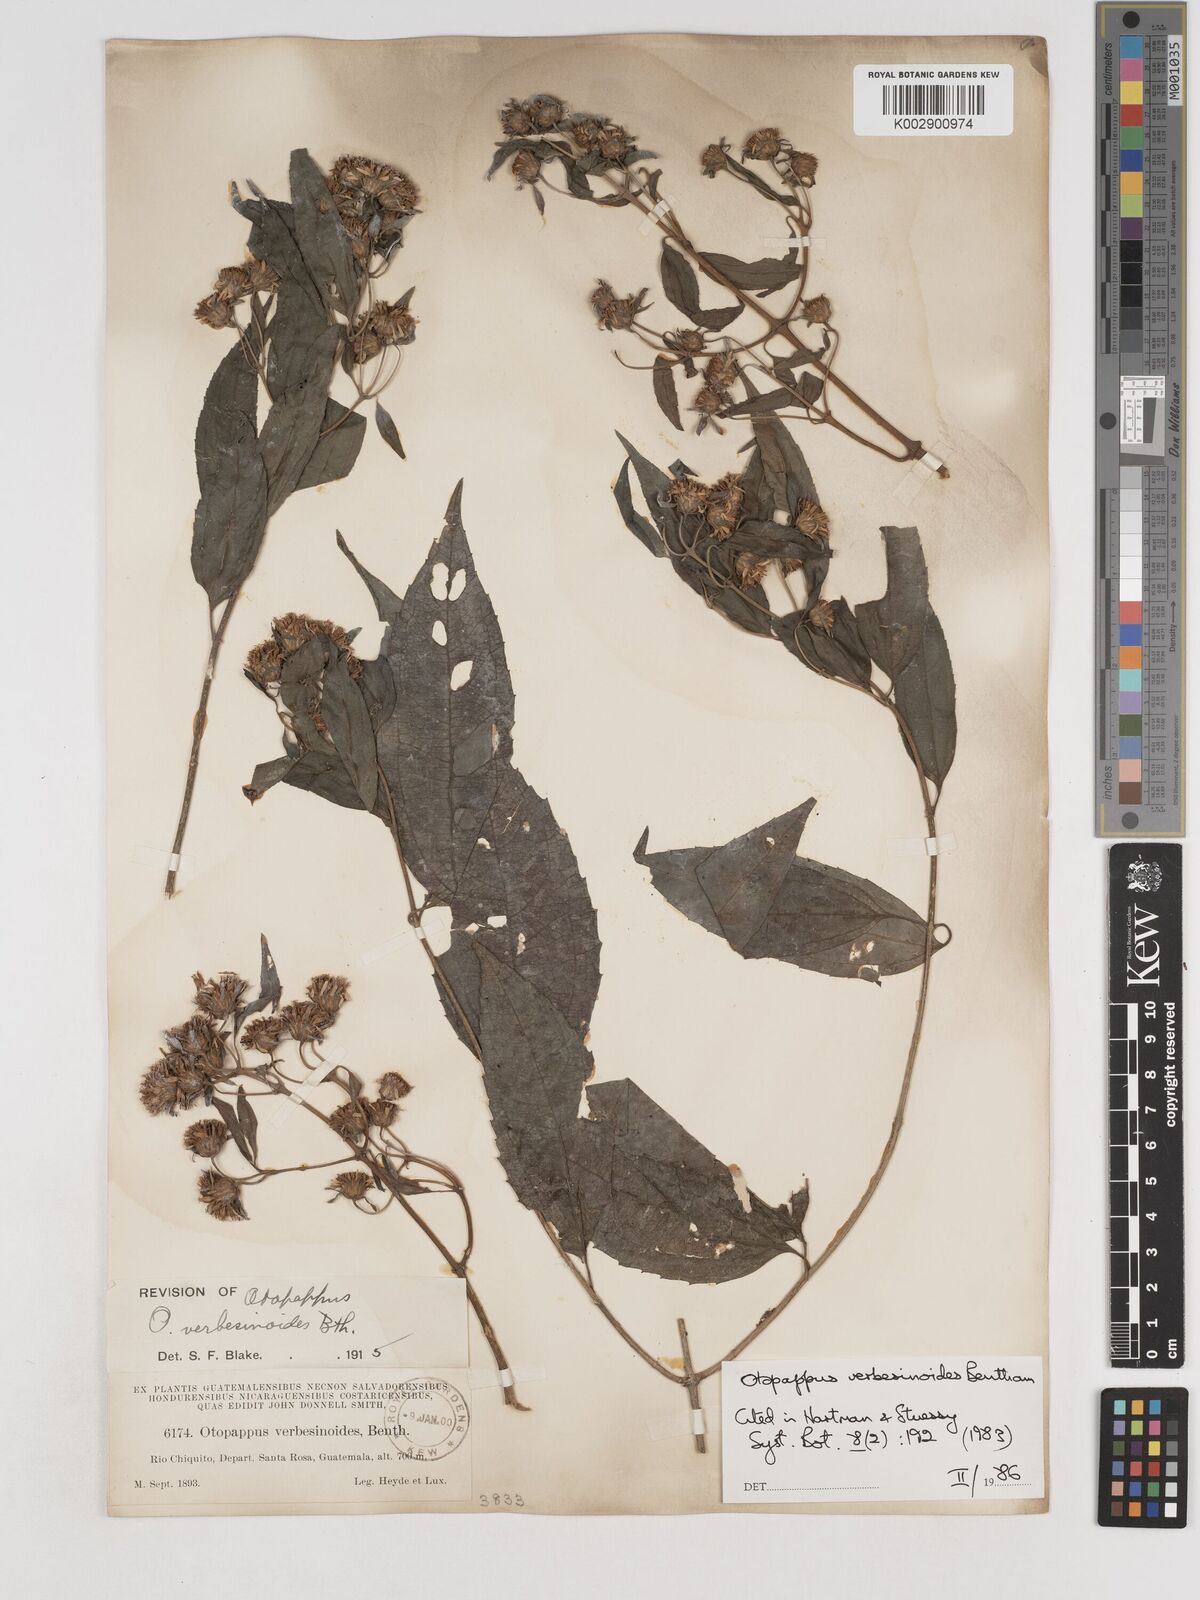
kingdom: Plantae
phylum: Tracheophyta
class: Magnoliopsida
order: Asterales
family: Asteraceae
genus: Otopappus
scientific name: Otopappus verbesinoides
